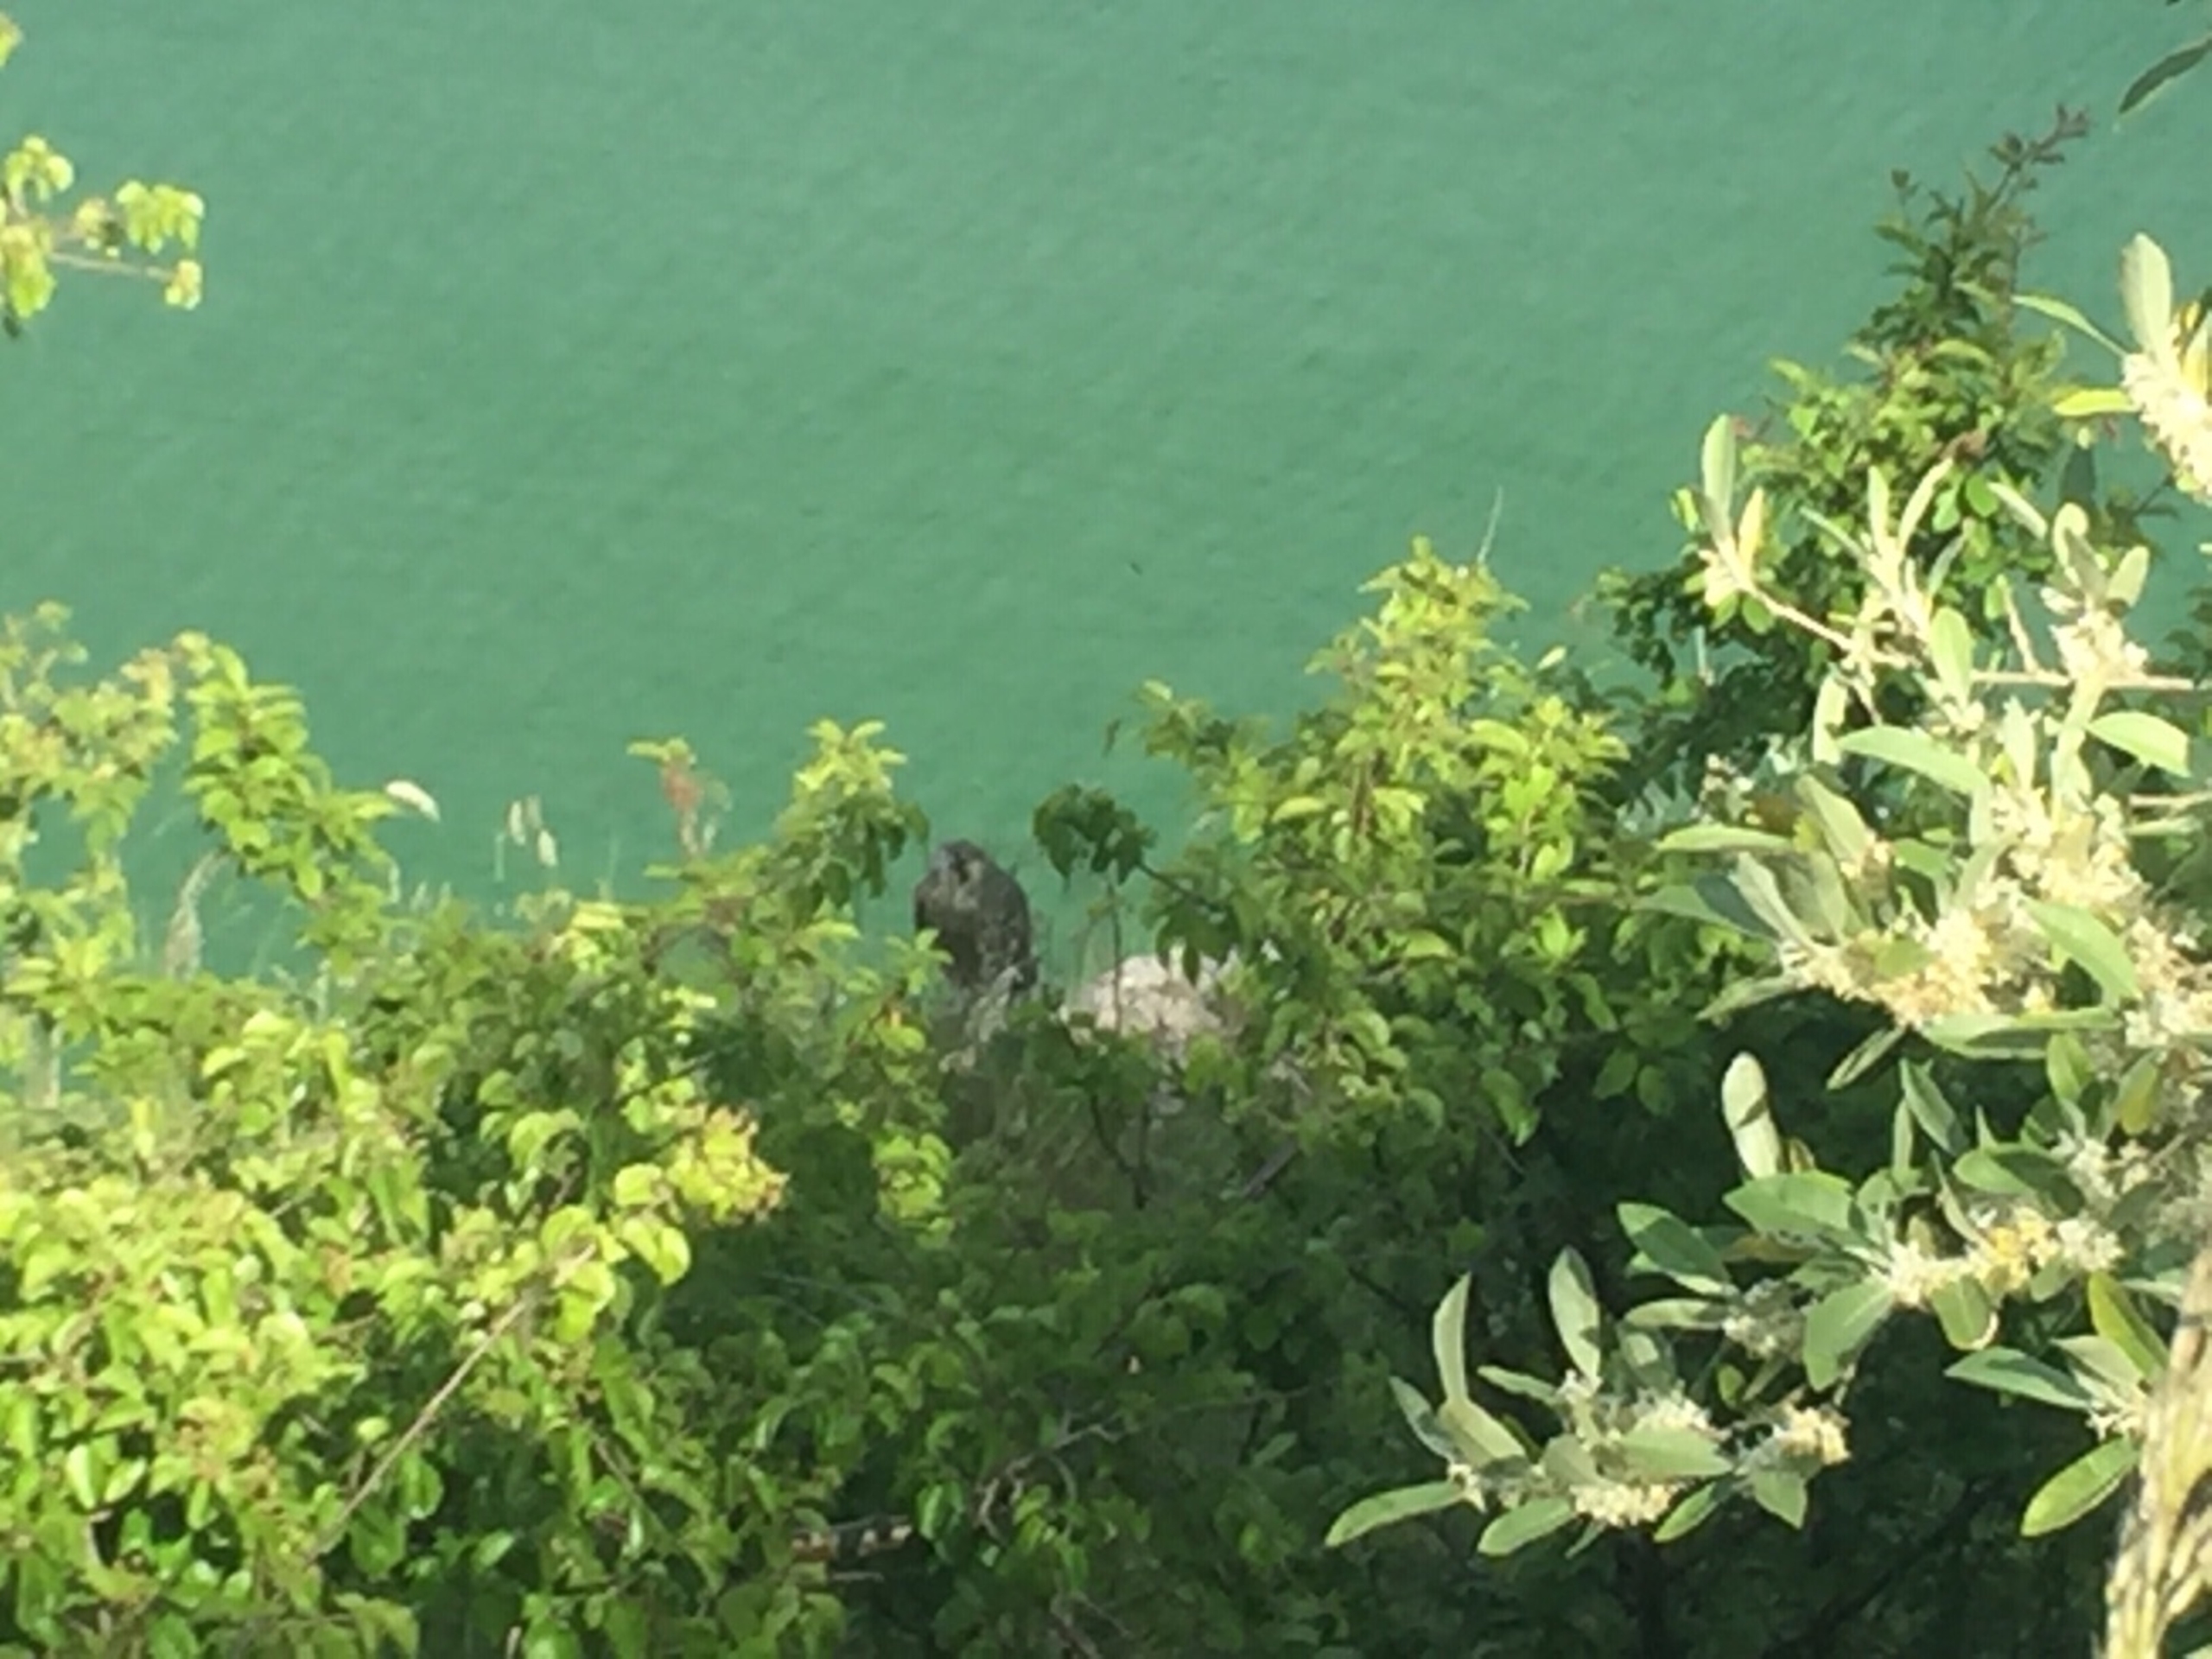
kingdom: Animalia
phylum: Chordata
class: Aves
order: Falconiformes
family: Falconidae
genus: Falco
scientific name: Falco peregrinus
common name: Vandrefalk
